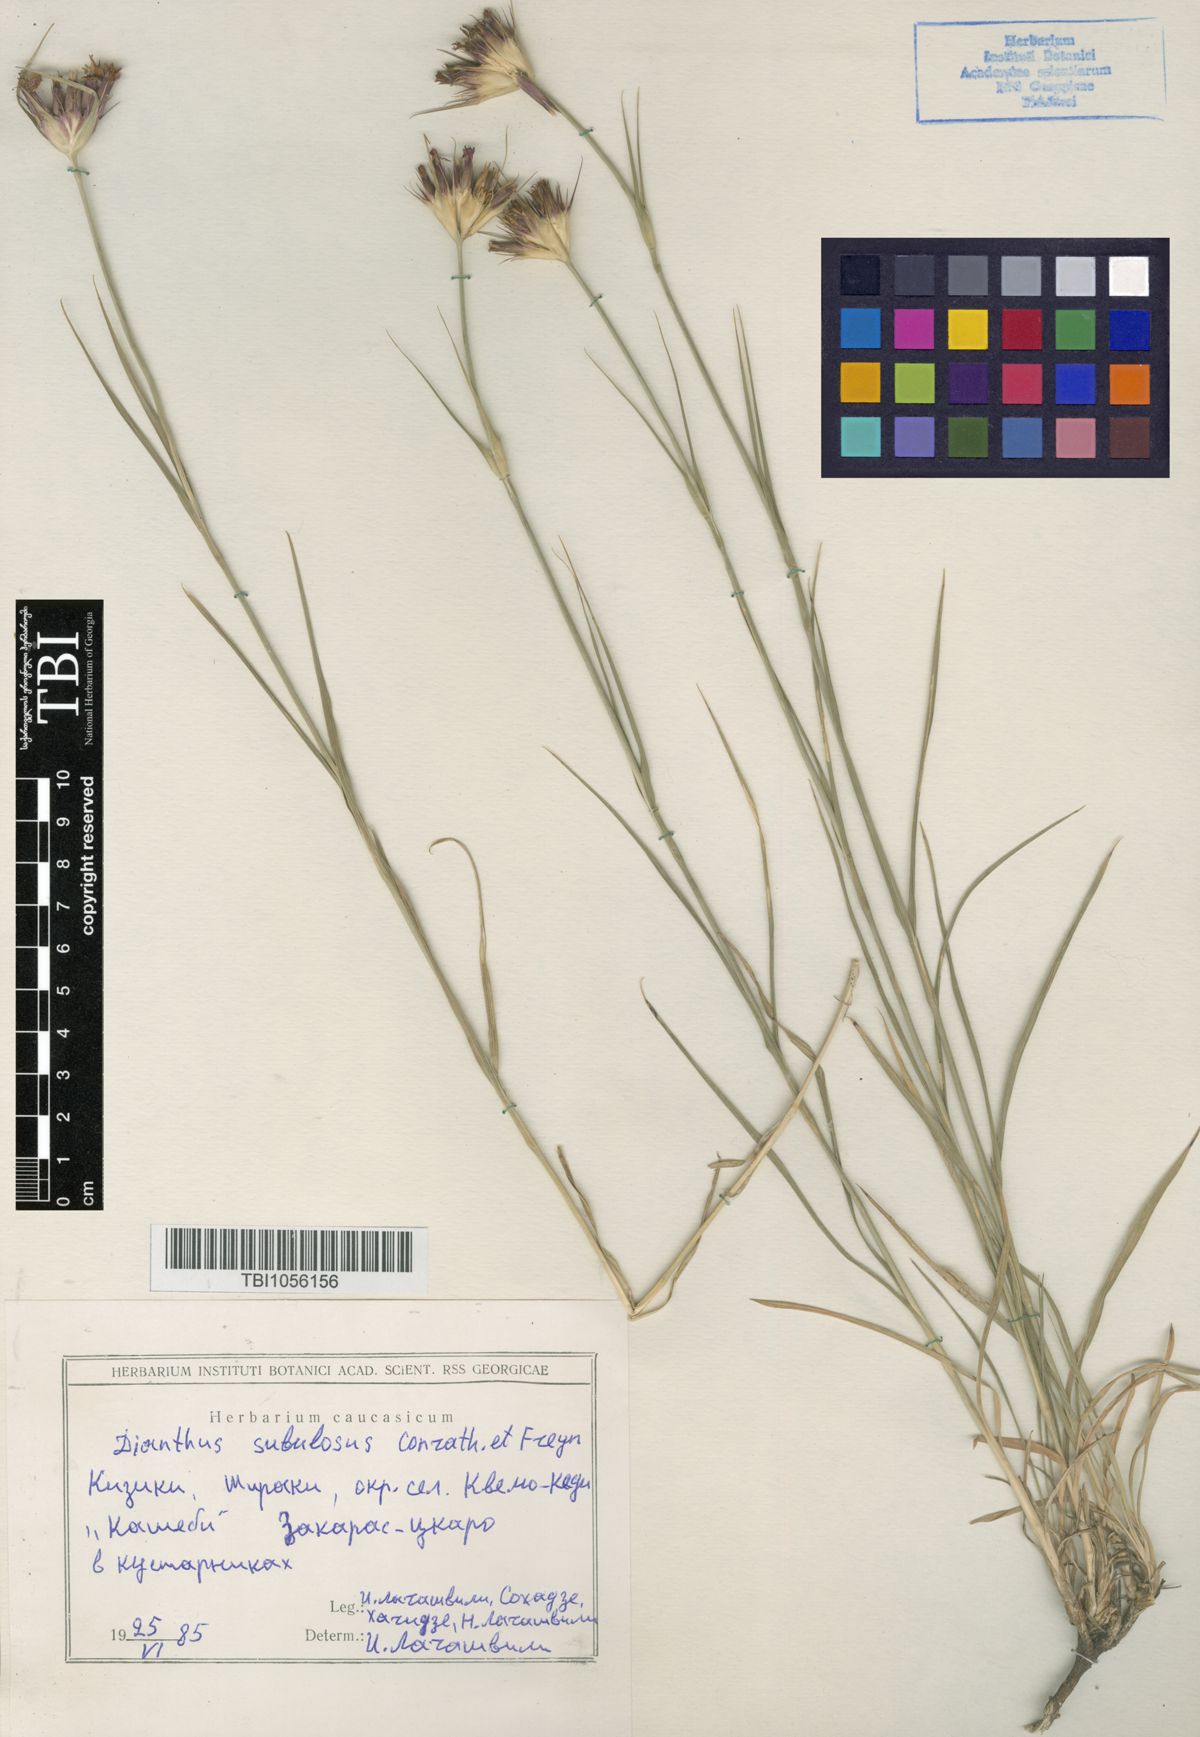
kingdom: Plantae
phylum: Tracheophyta
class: Magnoliopsida
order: Caryophyllales
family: Caryophyllaceae
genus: Dianthus
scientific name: Dianthus subulosus
